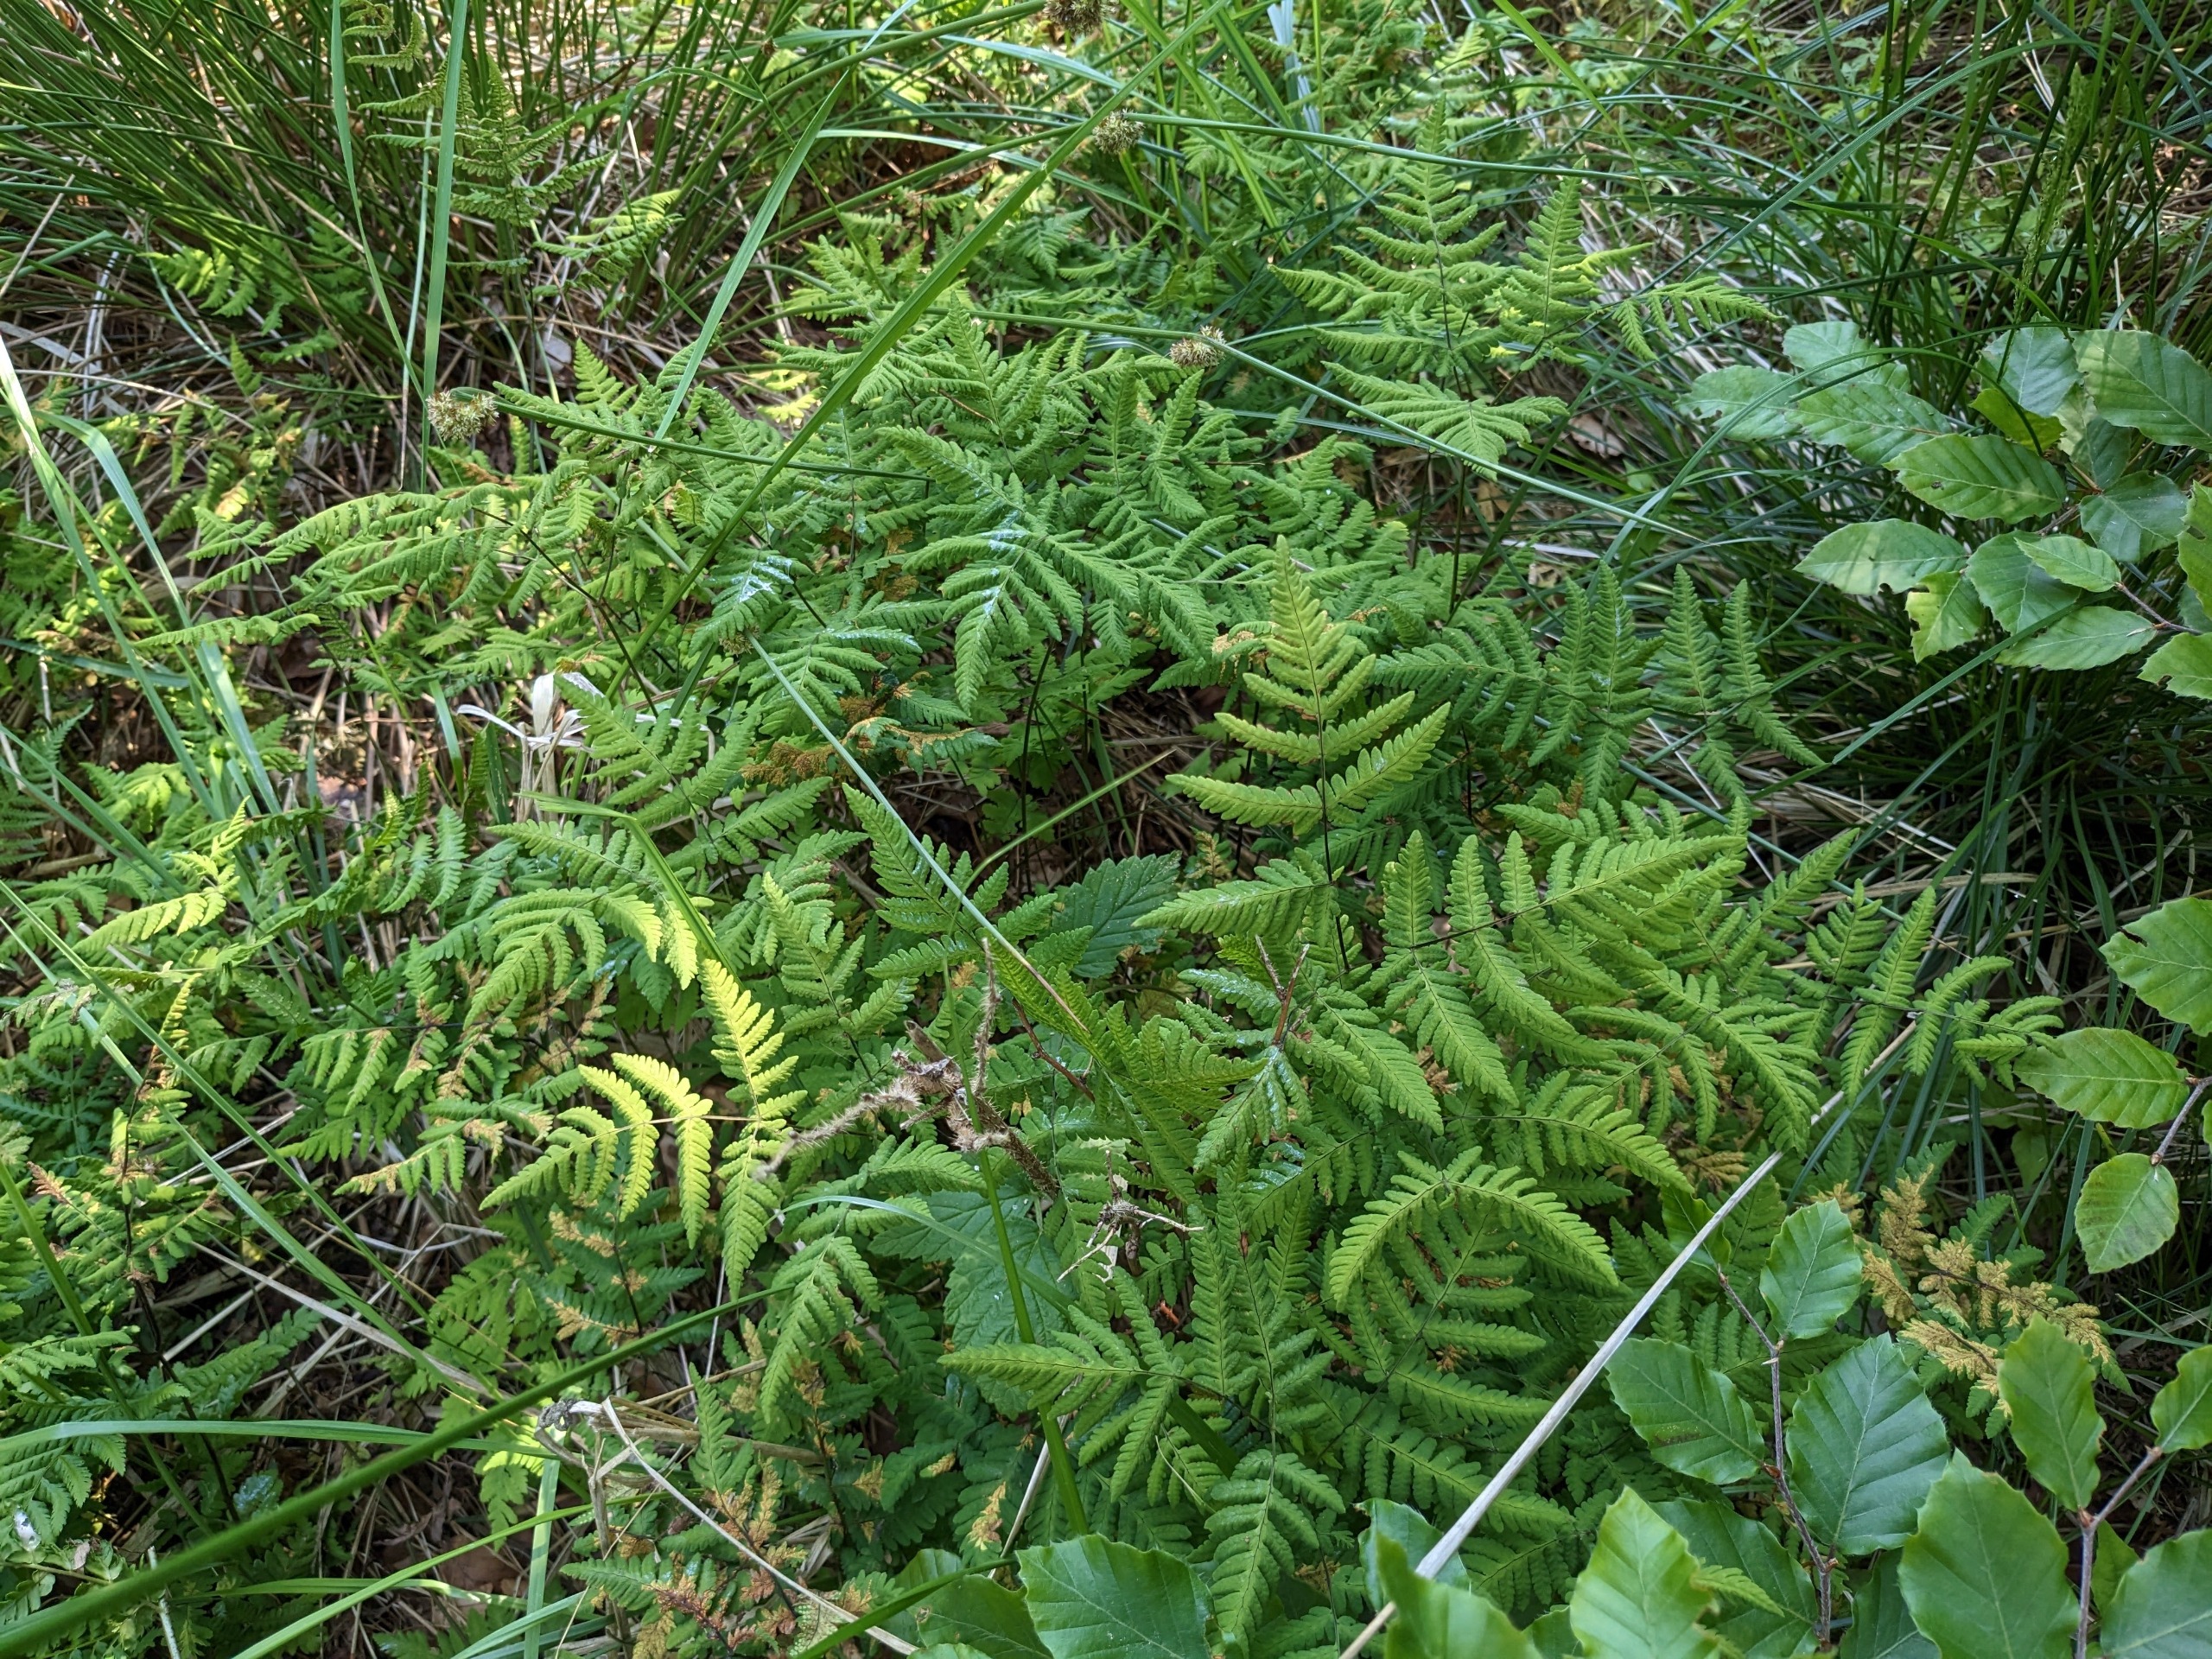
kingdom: Plantae
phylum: Tracheophyta
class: Polypodiopsida
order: Polypodiales
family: Cystopteridaceae
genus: Gymnocarpium
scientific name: Gymnocarpium dryopteris
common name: Tredelt egebregne
